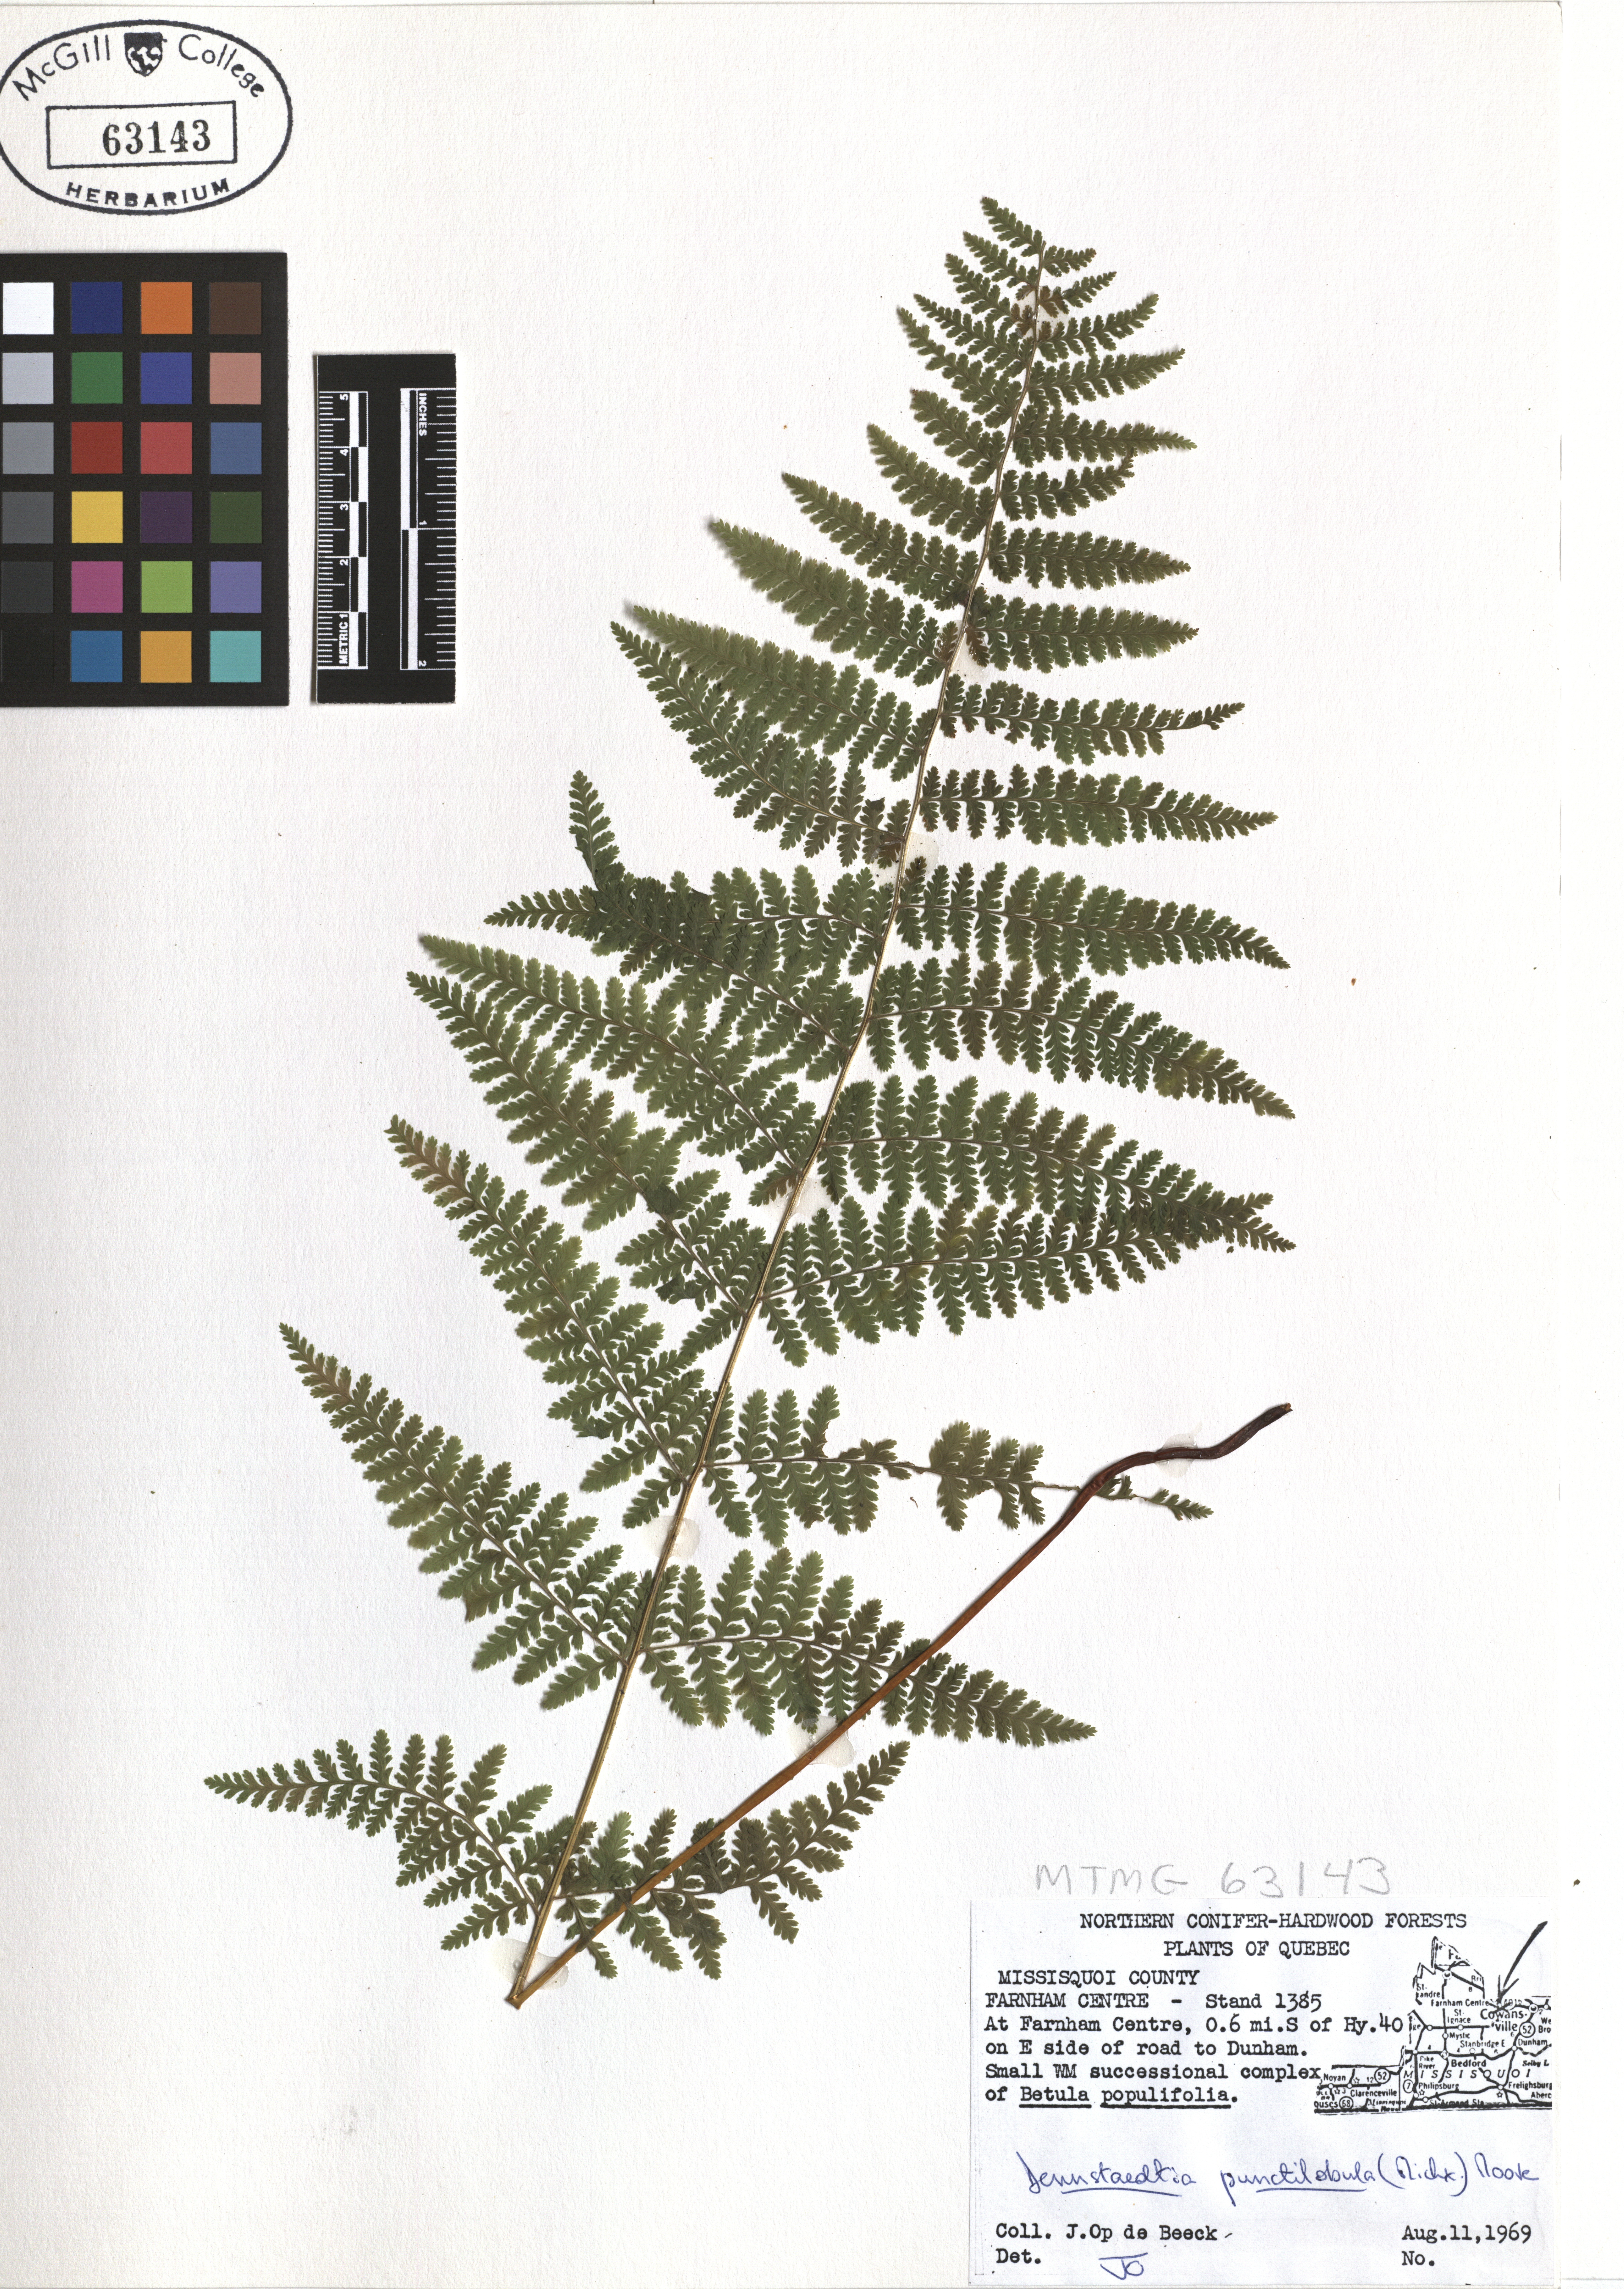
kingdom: Plantae
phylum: Tracheophyta
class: Polypodiopsida
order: Polypodiales
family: Dennstaedtiaceae
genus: Sitobolium
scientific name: Sitobolium punctilobum
